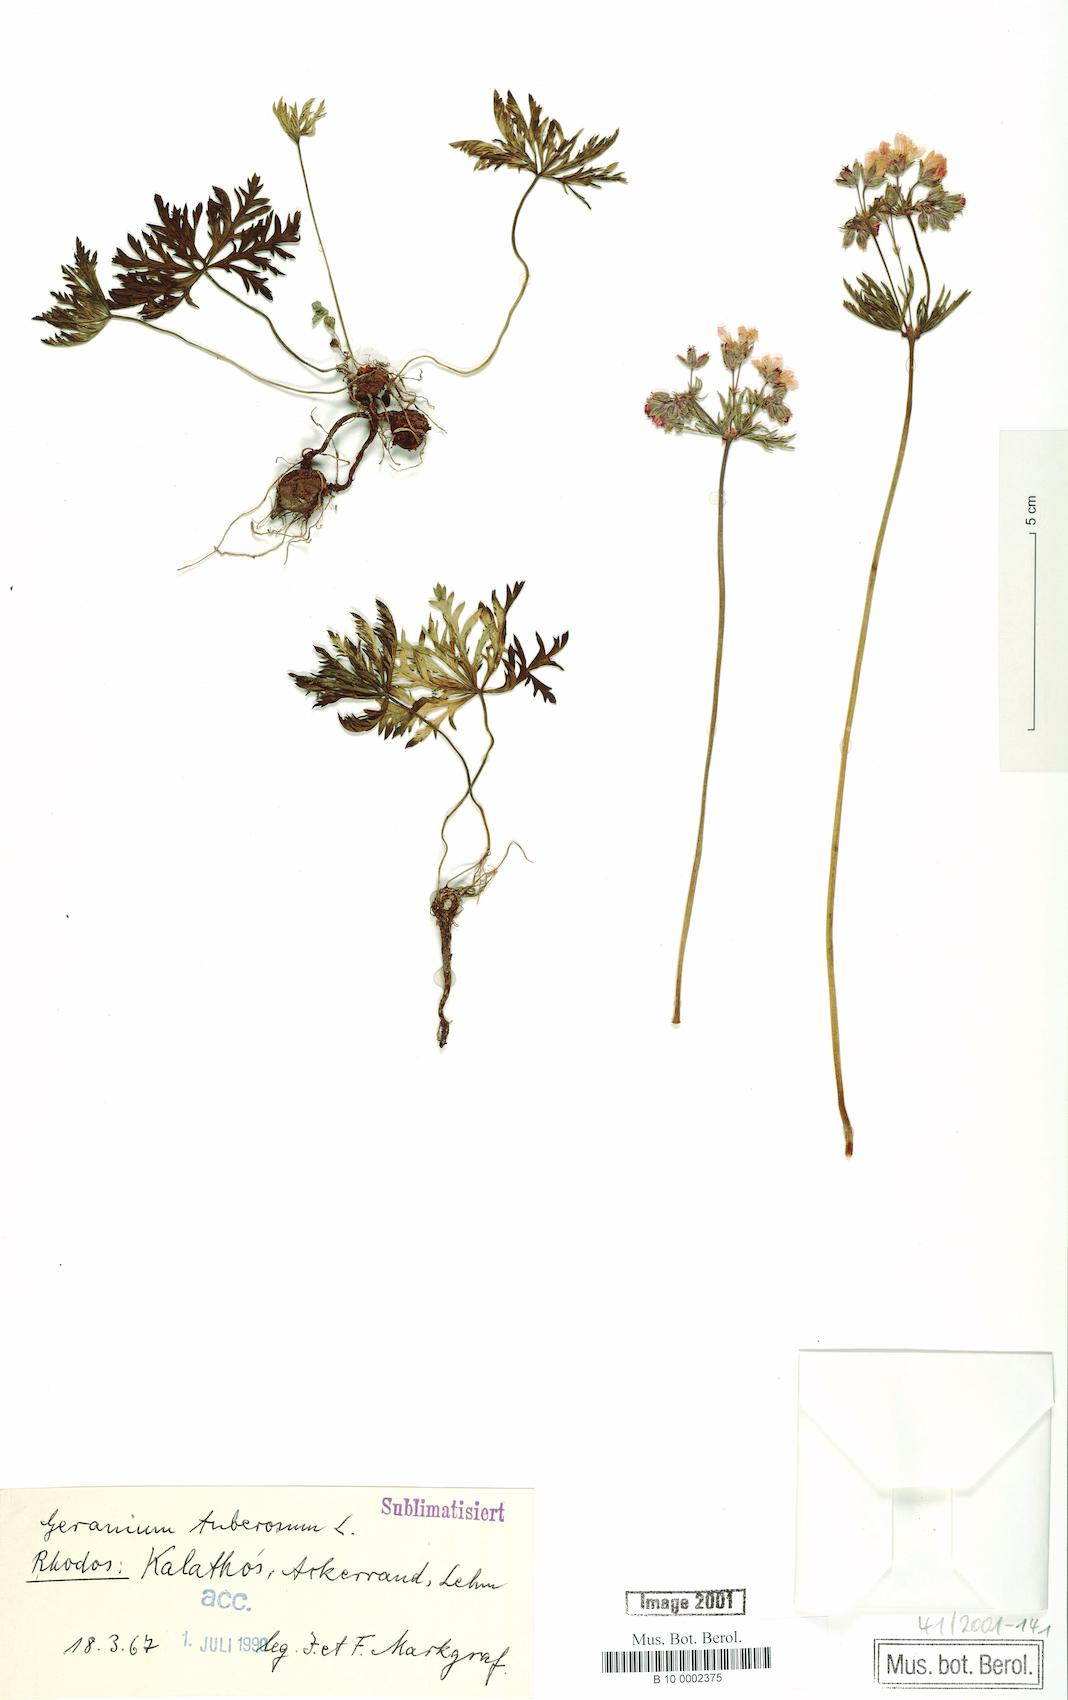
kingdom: Plantae
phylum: Tracheophyta
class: Magnoliopsida
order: Geraniales
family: Geraniaceae
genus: Geranium
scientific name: Geranium tuberosum
